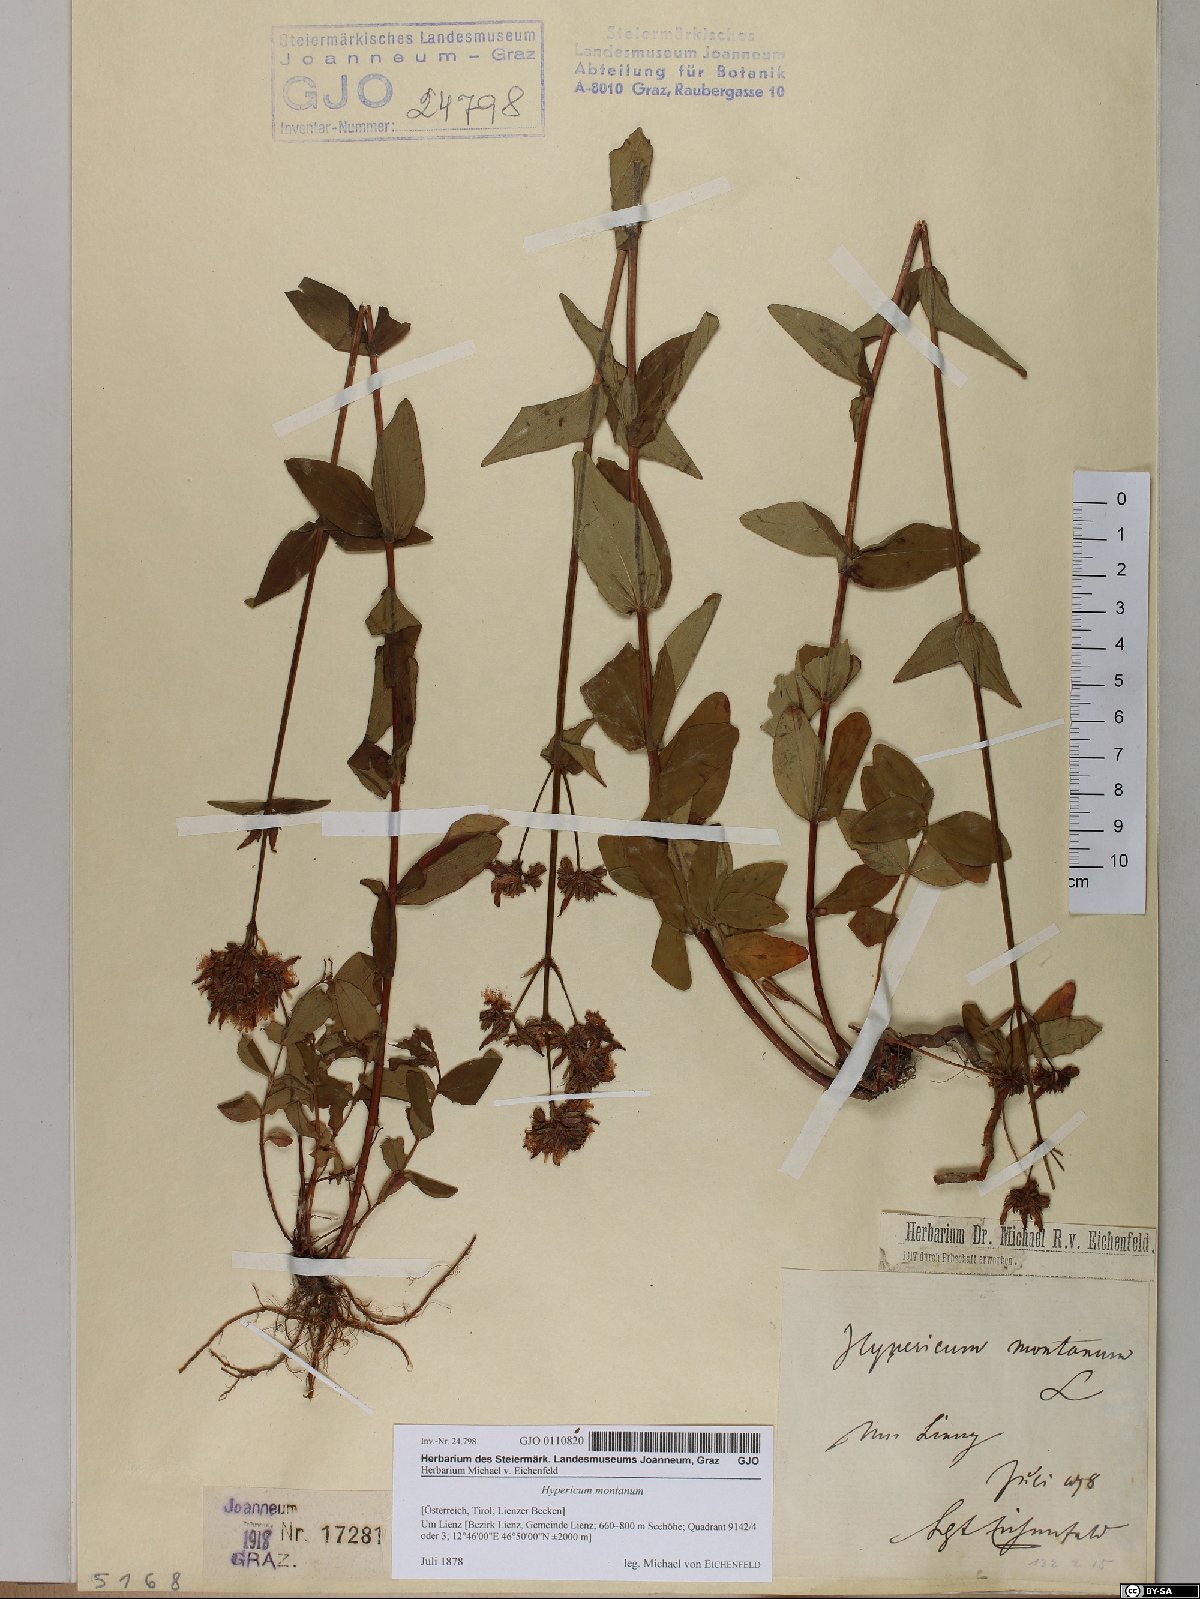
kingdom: Plantae
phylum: Tracheophyta
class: Magnoliopsida
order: Malpighiales
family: Hypericaceae
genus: Hypericum
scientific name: Hypericum montanum
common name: Pale st. john's-wort
